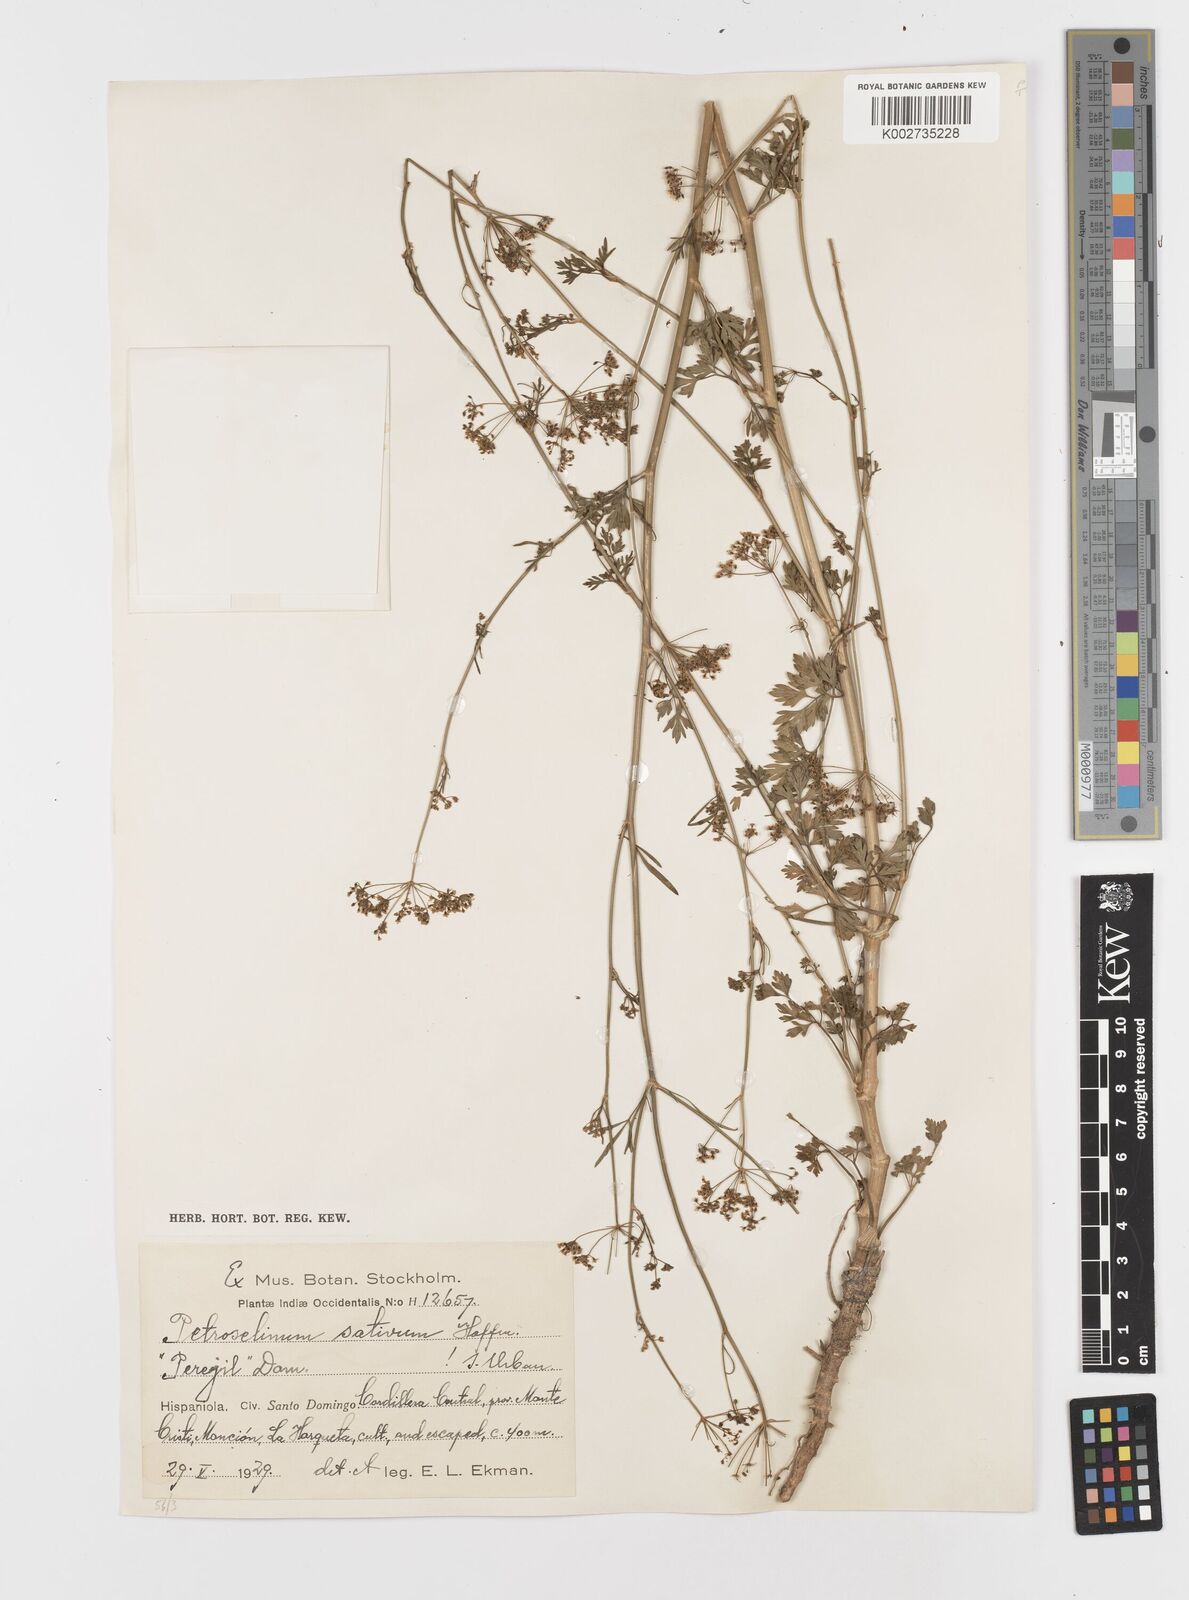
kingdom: Plantae
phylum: Tracheophyta
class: Magnoliopsida
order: Apiales
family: Apiaceae
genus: Petroselinum
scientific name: Petroselinum crispum
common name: Parsley
